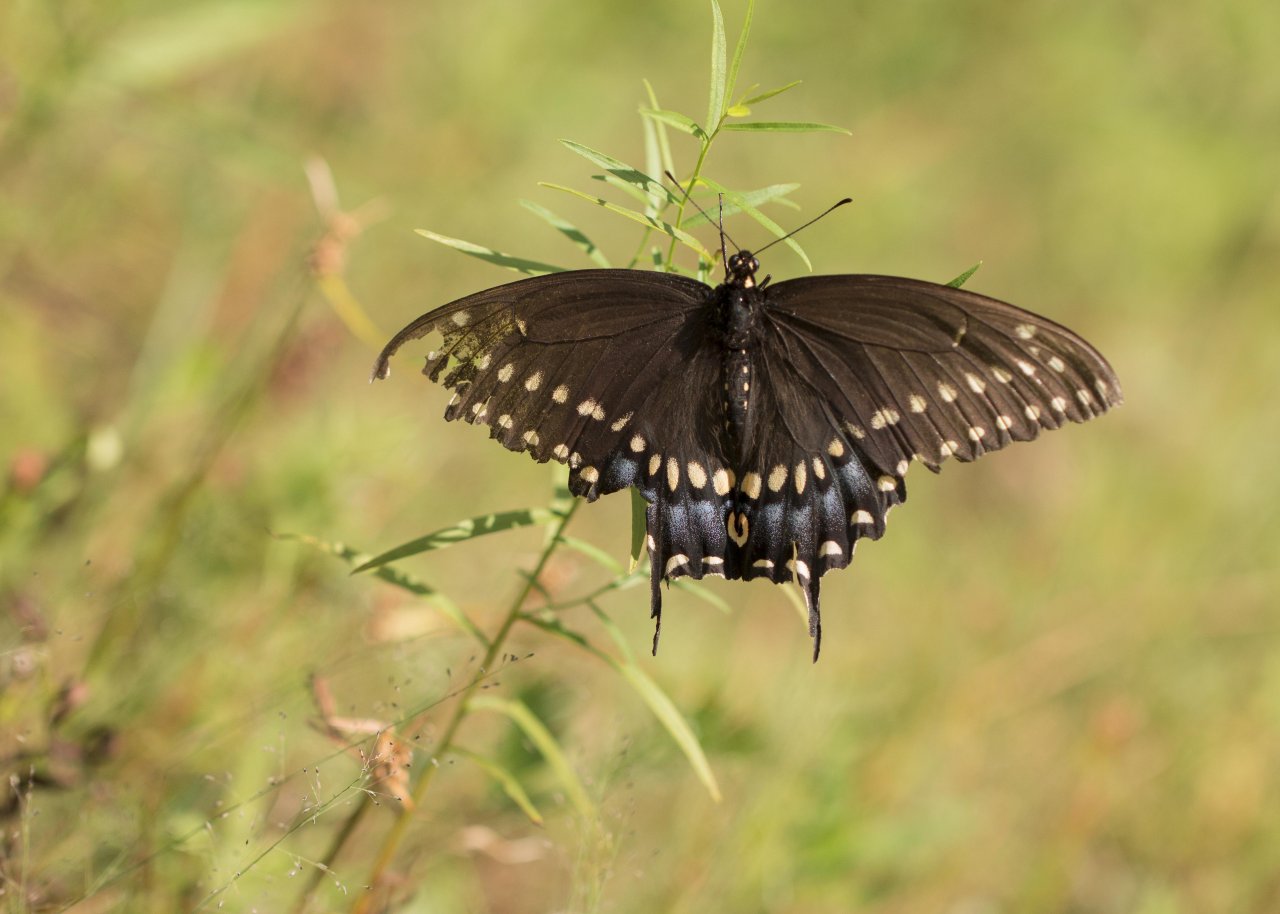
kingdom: Animalia
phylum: Arthropoda
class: Insecta
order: Lepidoptera
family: Papilionidae
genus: Papilio
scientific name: Papilio polyxenes
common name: Black Swallowtail
